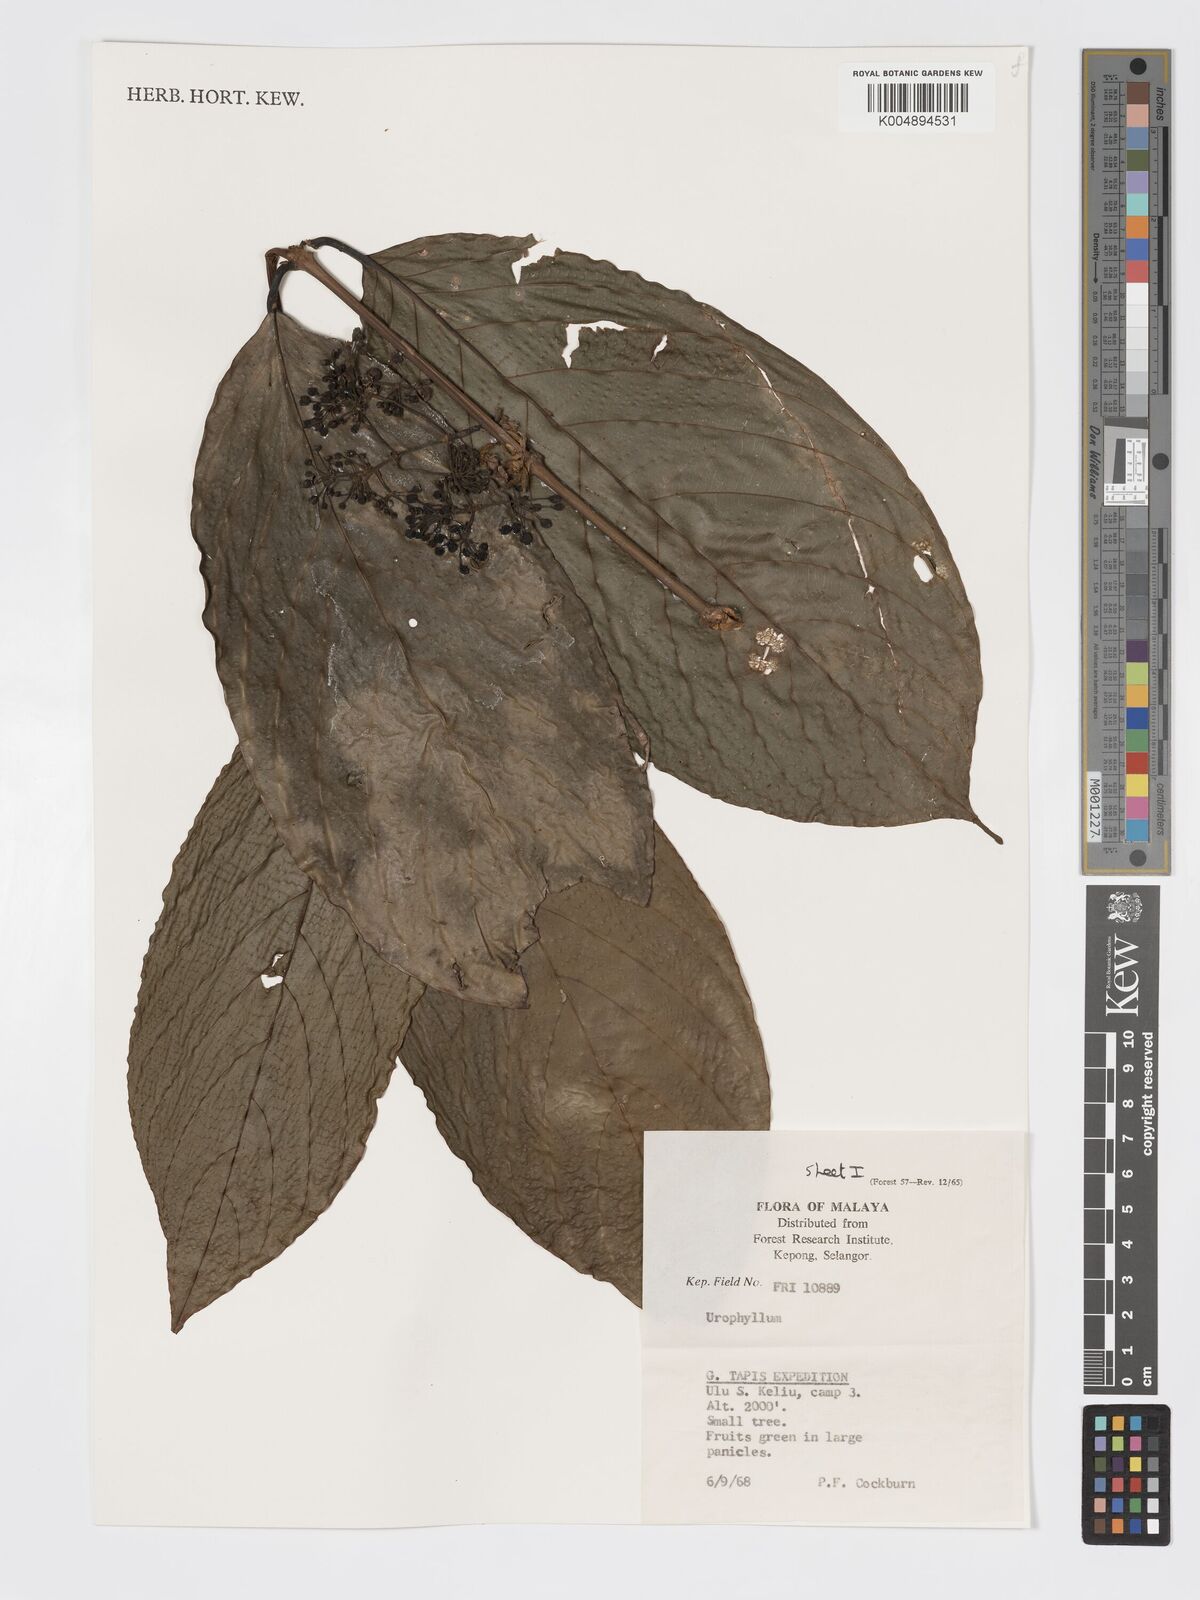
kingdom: Plantae
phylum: Tracheophyta
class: Magnoliopsida
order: Gentianales
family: Rubiaceae
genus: Urophyllum
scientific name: Urophyllum malayense
